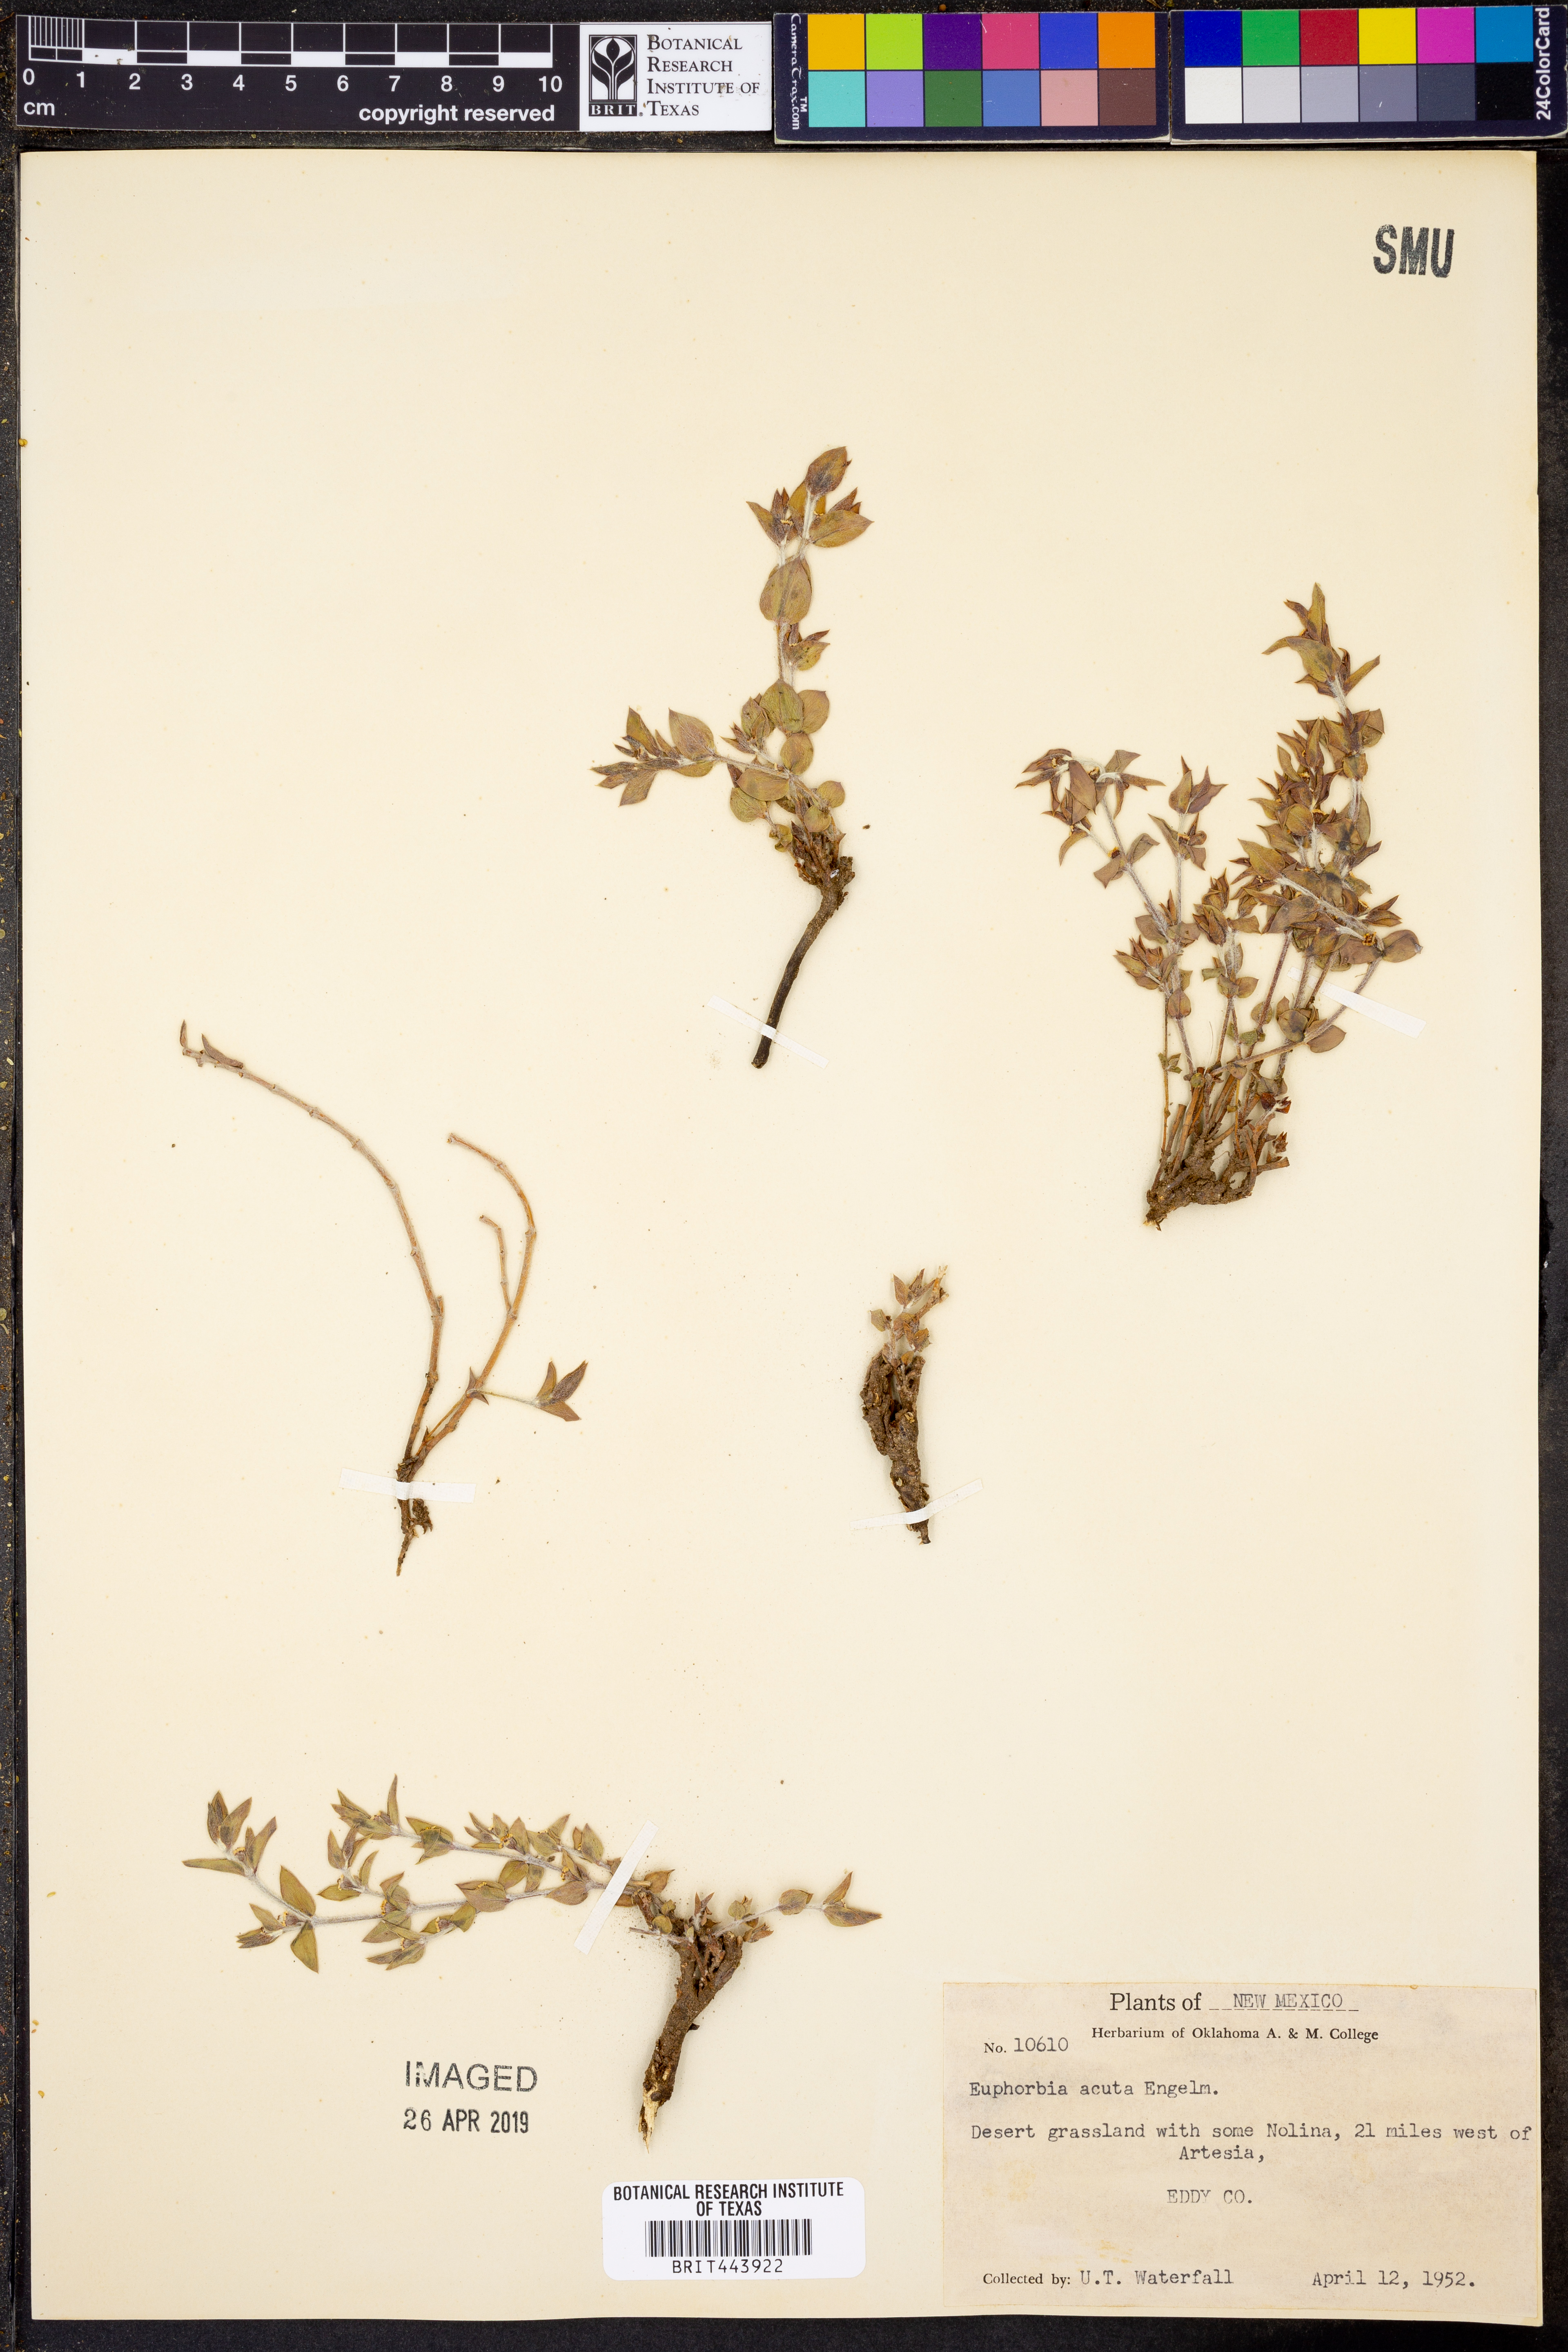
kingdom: Plantae
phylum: Tracheophyta
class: Magnoliopsida
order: Malpighiales
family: Euphorbiaceae
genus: Euphorbia
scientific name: Euphorbia acuta
